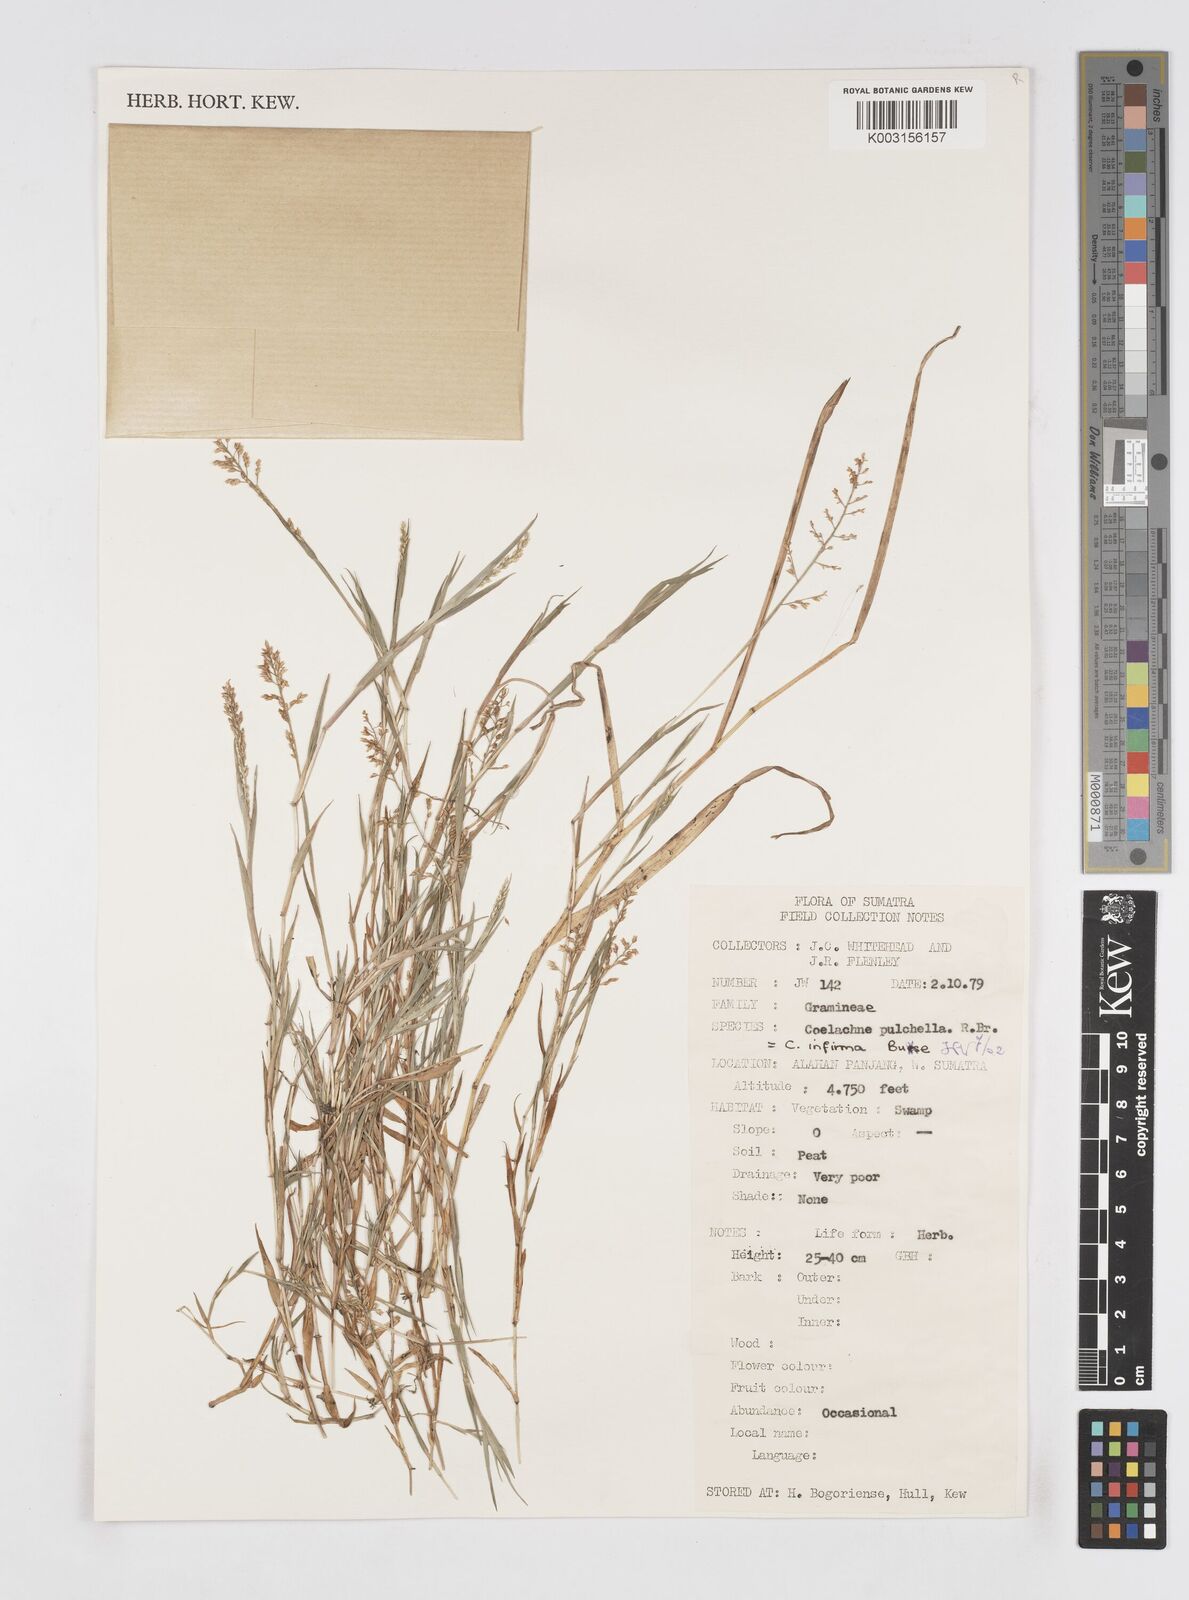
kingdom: Plantae
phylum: Tracheophyta
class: Liliopsida
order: Poales
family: Poaceae
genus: Coelachne
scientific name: Coelachne infirma
